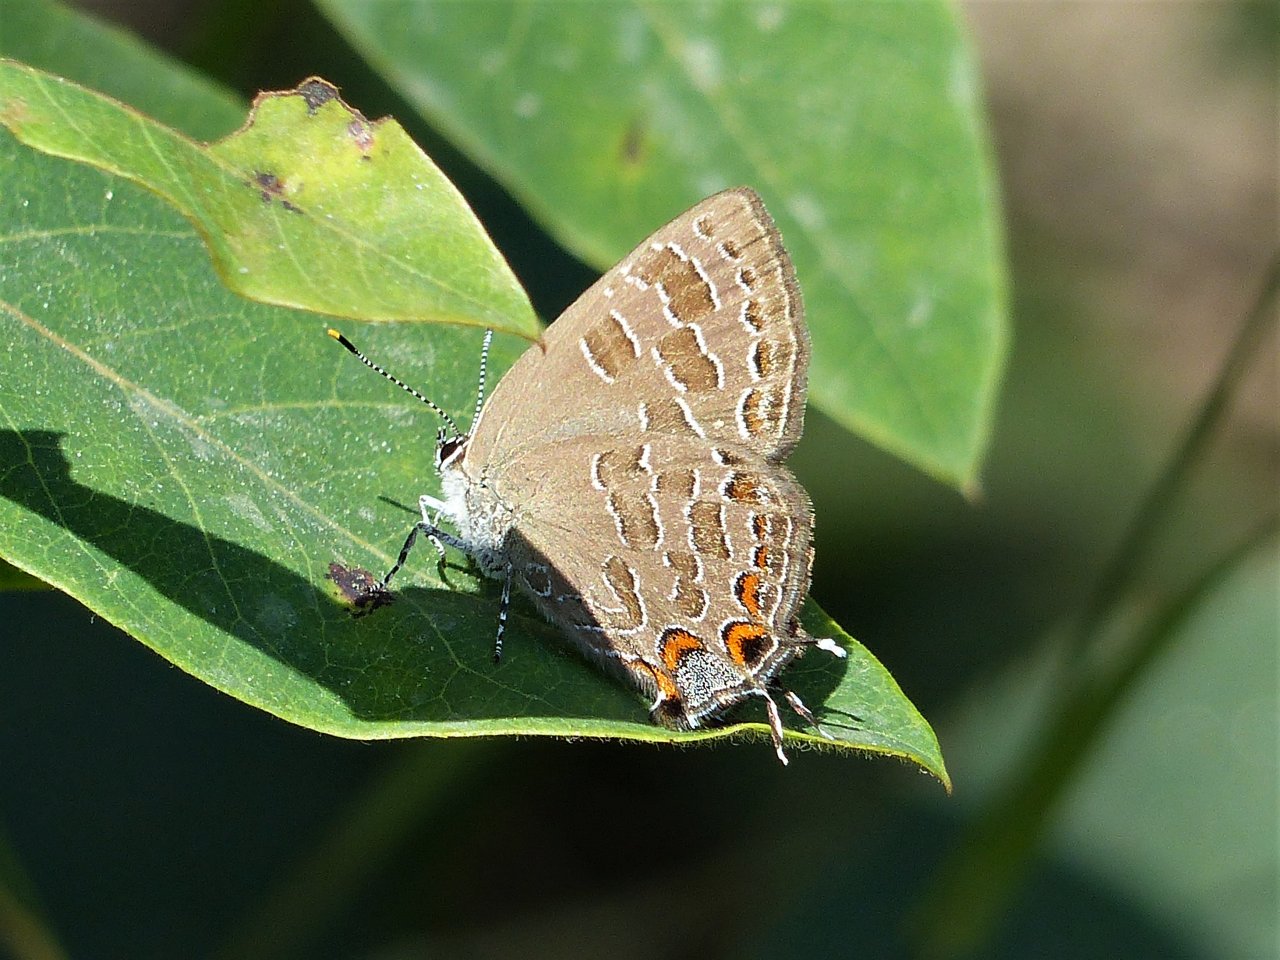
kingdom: Animalia
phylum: Arthropoda
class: Insecta
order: Lepidoptera
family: Lycaenidae
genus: Satyrium
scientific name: Satyrium liparops
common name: Striped Hairstreak
